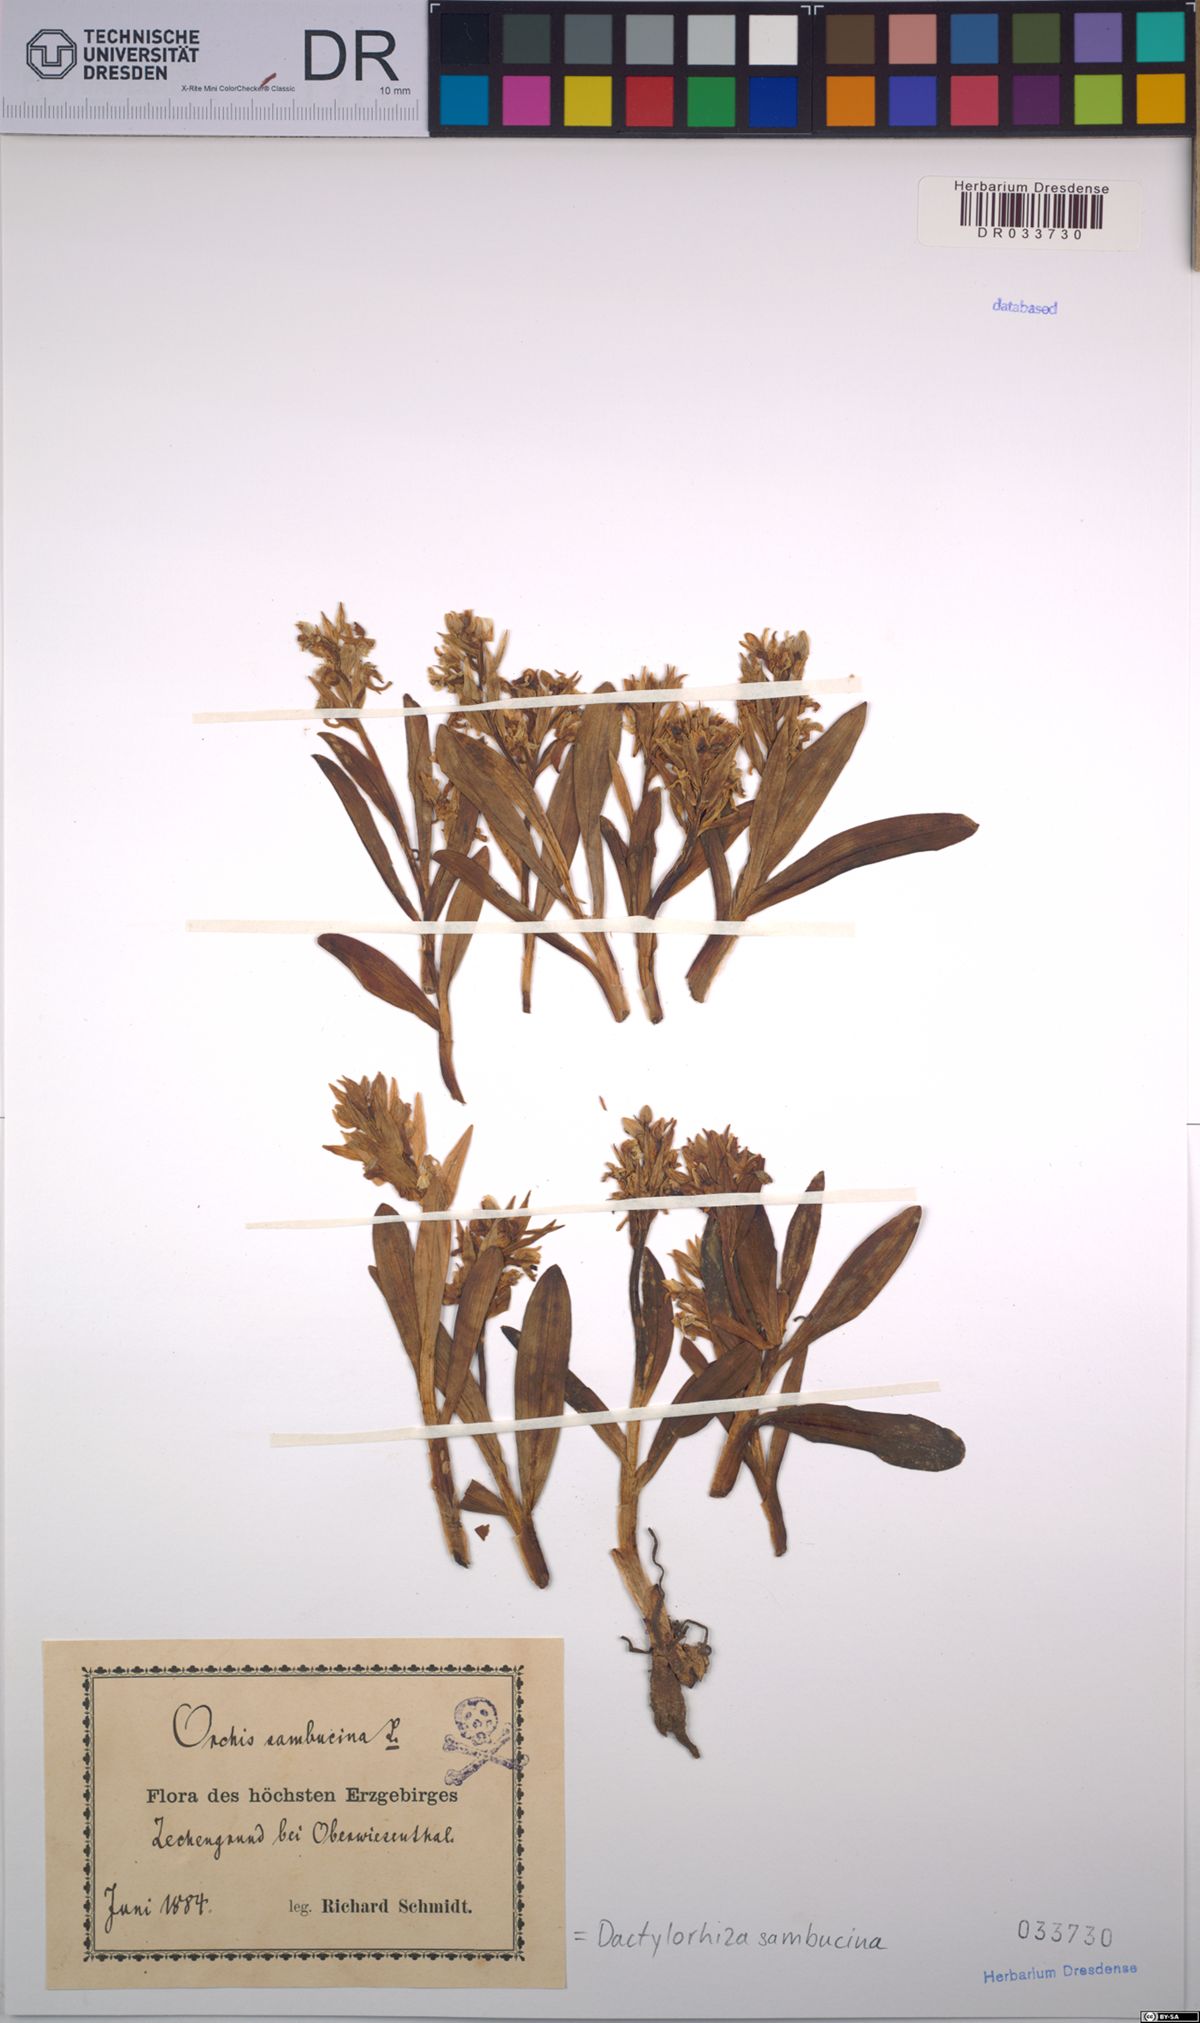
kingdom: Plantae
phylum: Tracheophyta
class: Liliopsida
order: Asparagales
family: Orchidaceae
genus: Dactylorhiza
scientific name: Dactylorhiza sambucina
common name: Elder-flowered orchid
